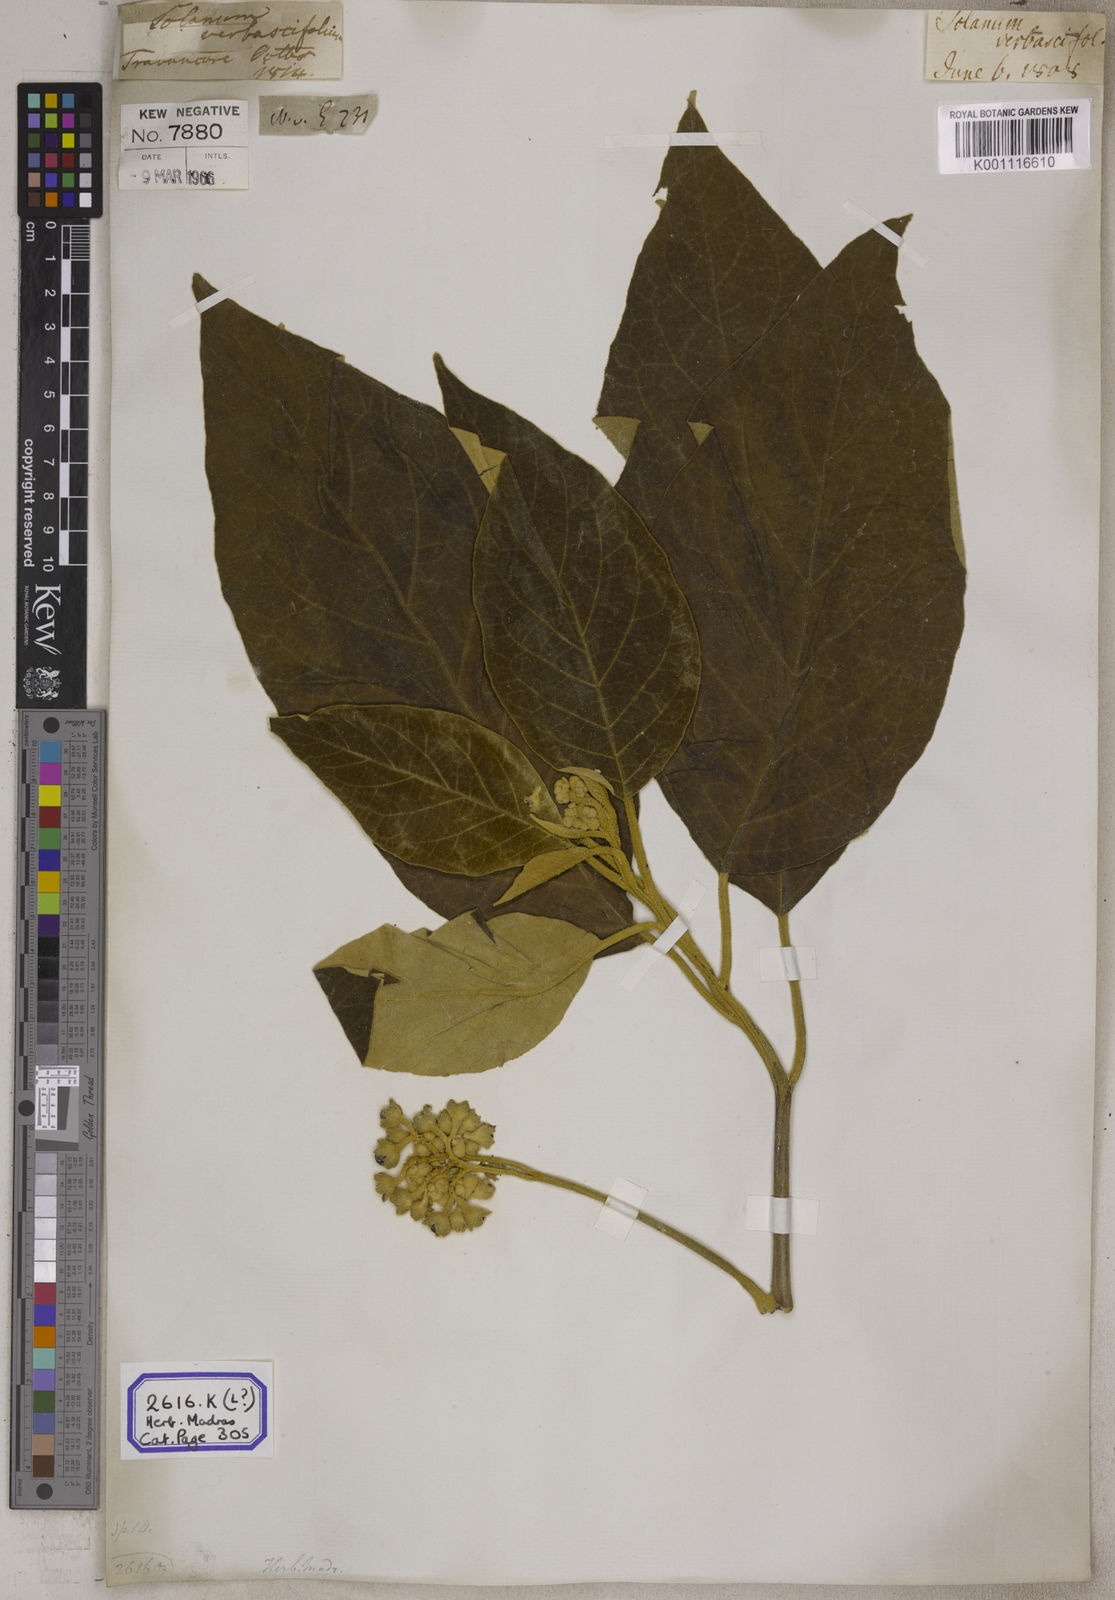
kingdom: Plantae
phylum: Tracheophyta
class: Magnoliopsida
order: Solanales
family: Solanaceae
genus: Solanum
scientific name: Solanum donianum
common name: Mullein nightshade
